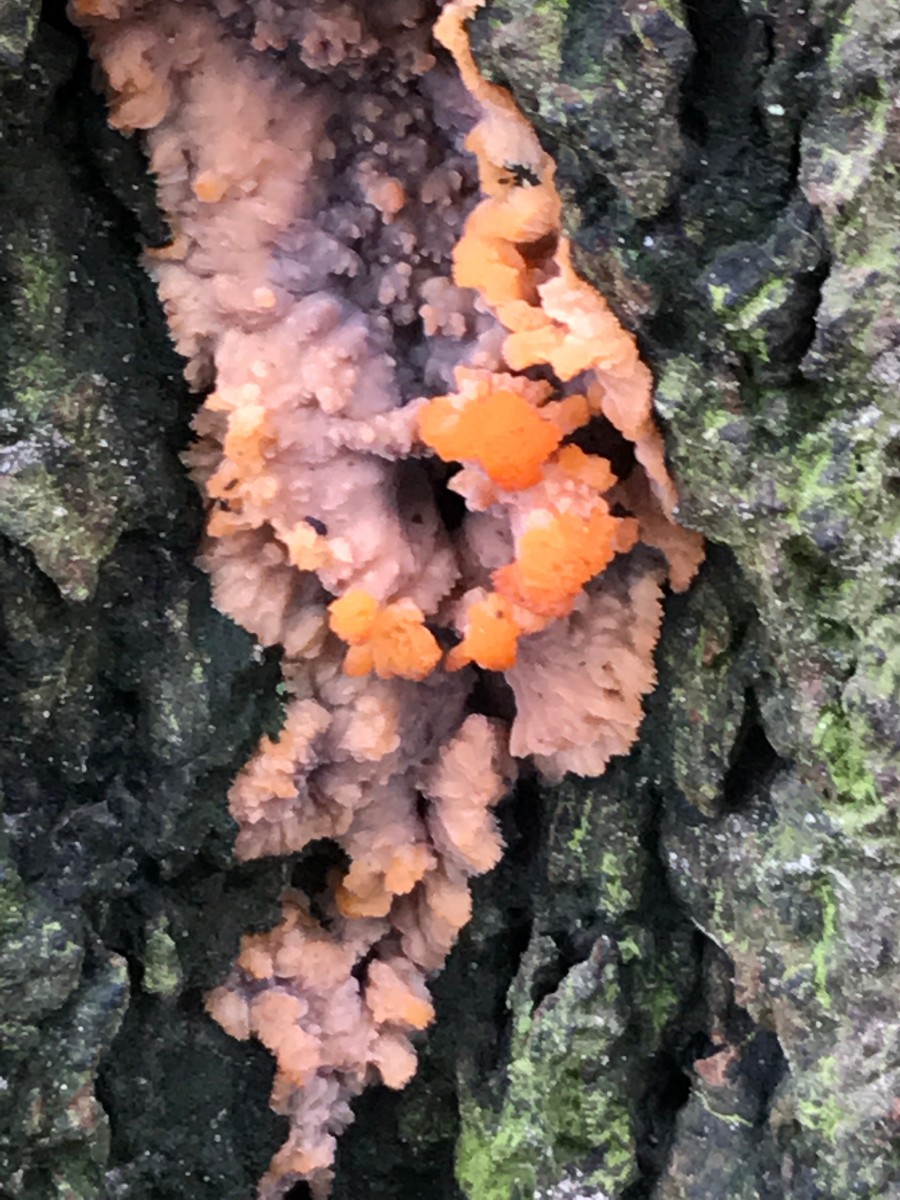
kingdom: Fungi
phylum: Basidiomycota
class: Agaricomycetes
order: Polyporales
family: Meruliaceae
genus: Phlebia
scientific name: Phlebia radiata
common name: stråle-åresvamp
